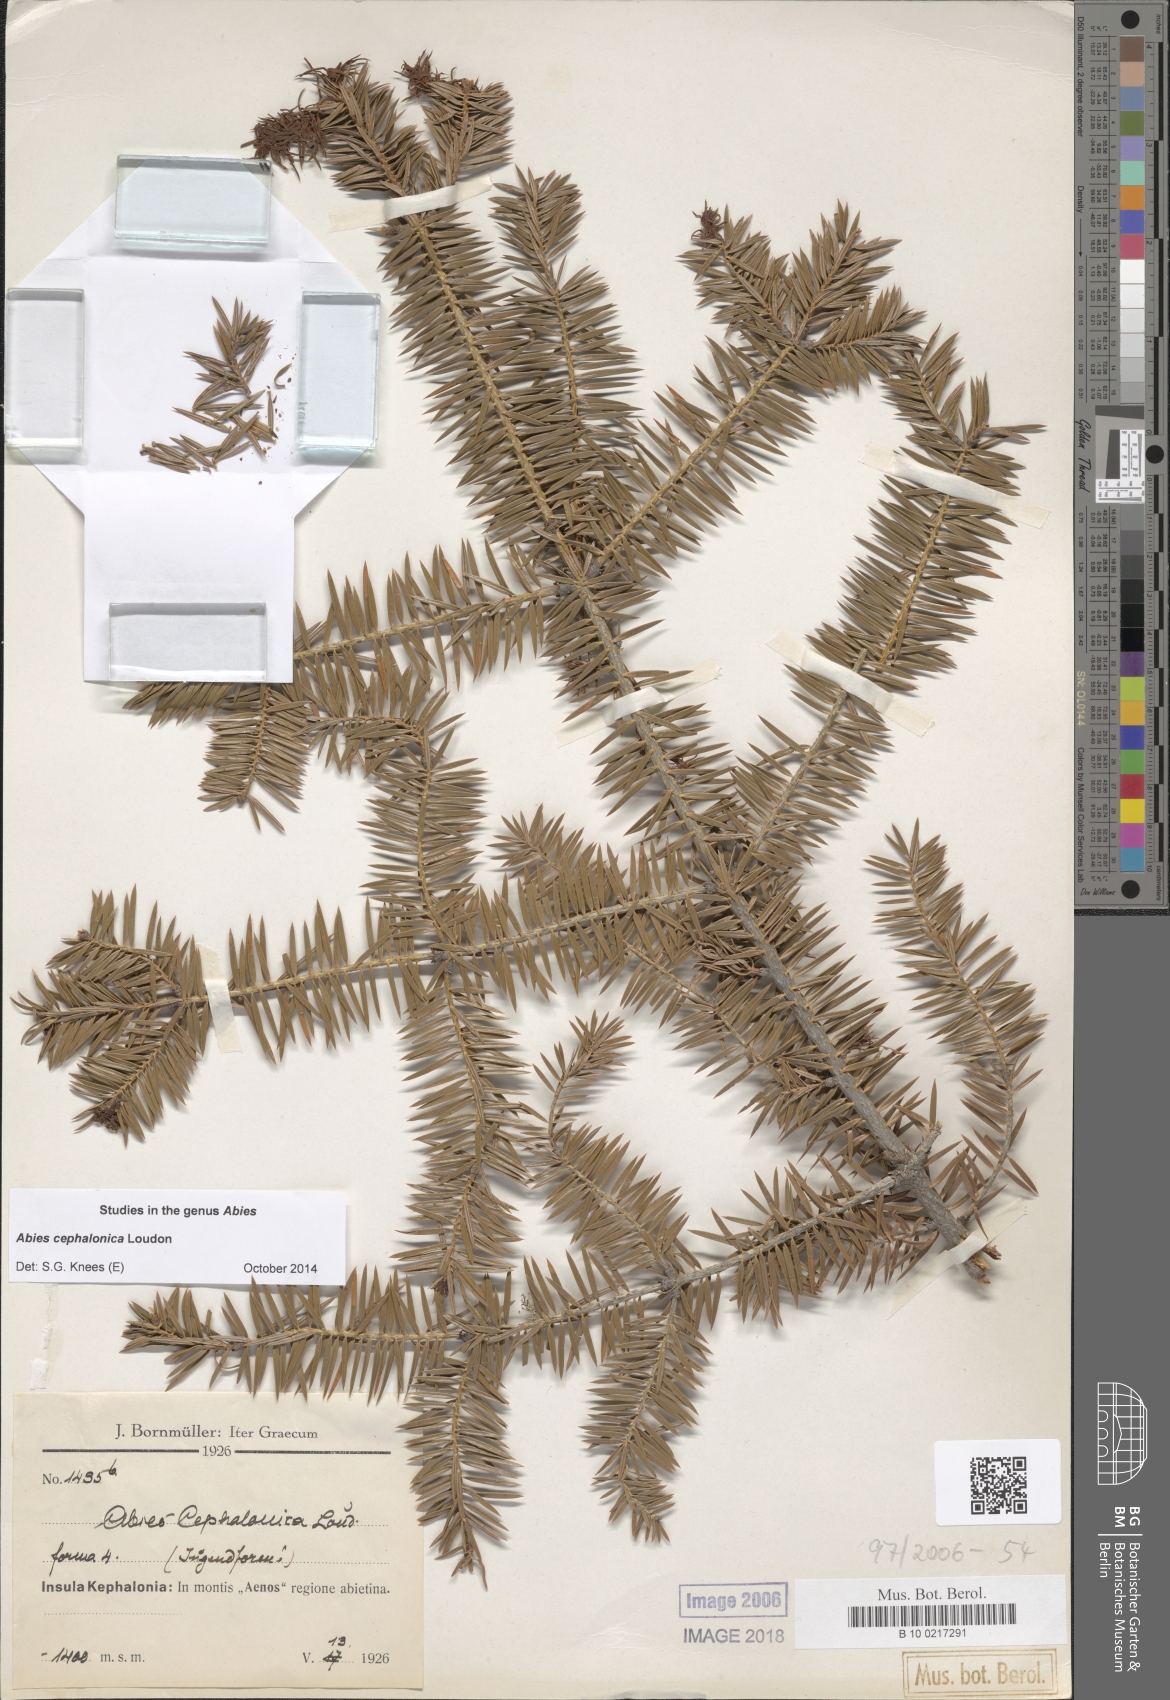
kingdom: Plantae
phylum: Tracheophyta
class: Pinopsida
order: Pinales
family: Pinaceae
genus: Abies
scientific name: Abies cephalonica
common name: Greek fir
